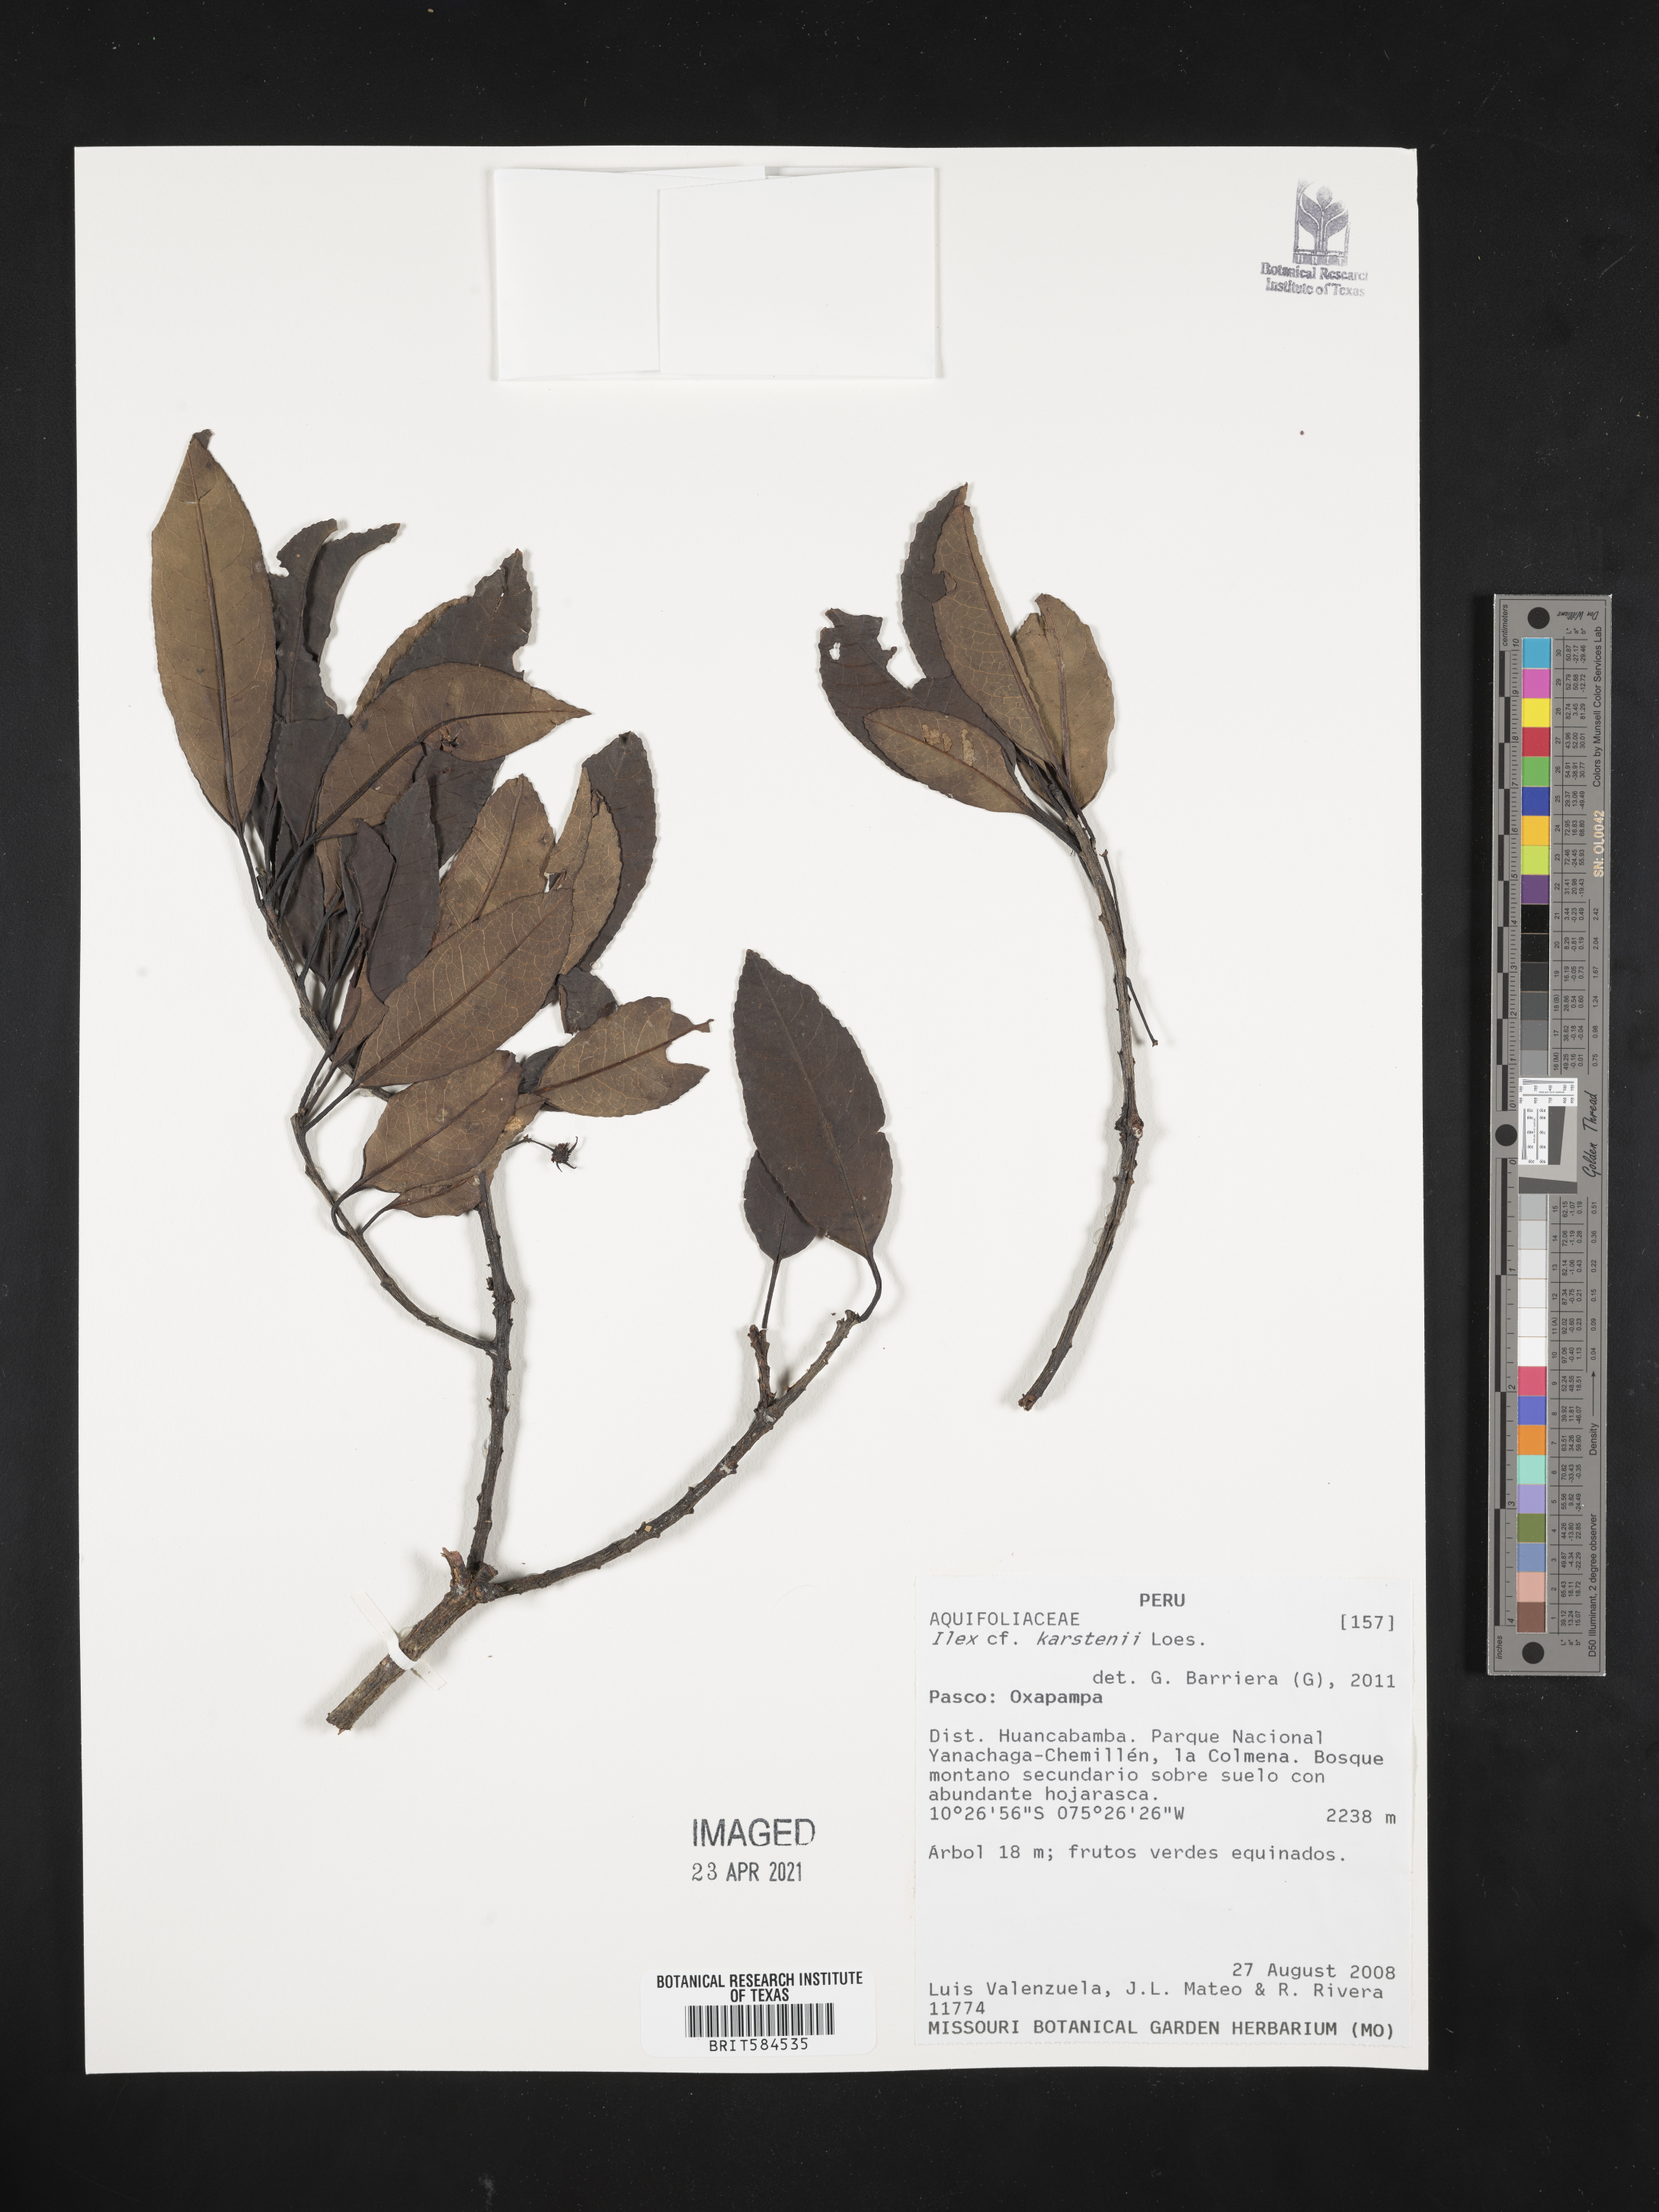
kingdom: Plantae
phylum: Tracheophyta
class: Magnoliopsida
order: Aquifoliales
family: Aquifoliaceae
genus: Ilex
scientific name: Ilex karstenii
